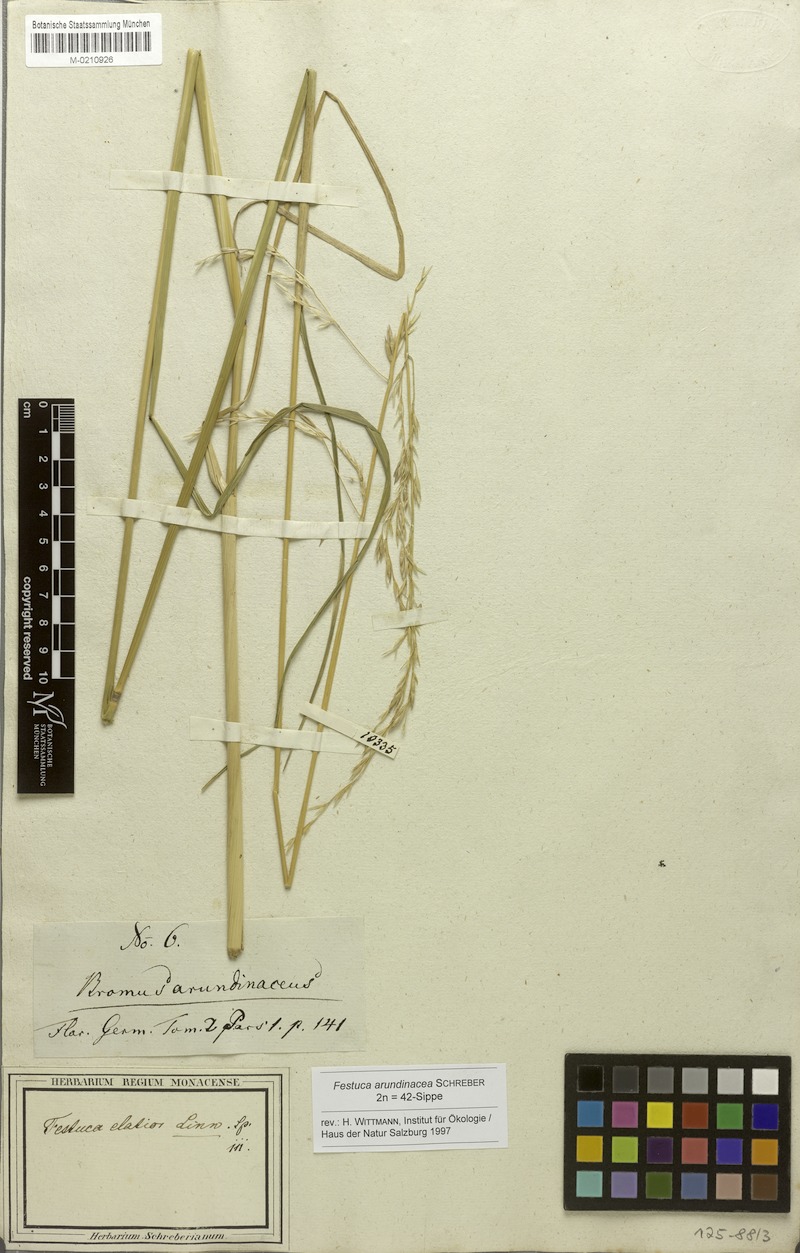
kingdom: Plantae
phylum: Tracheophyta
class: Liliopsida
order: Poales
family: Poaceae
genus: Lolium
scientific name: Lolium arundinaceum
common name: Reed fescue
